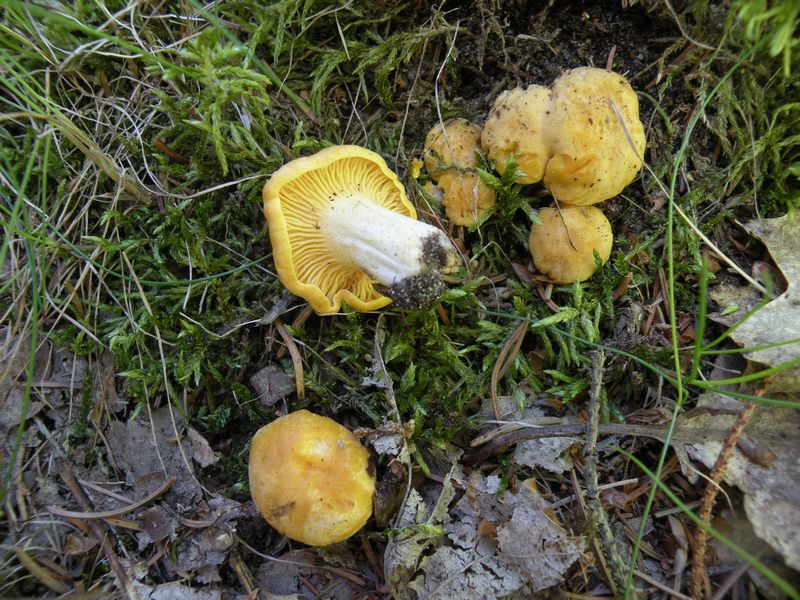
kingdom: Fungi
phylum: Basidiomycota
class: Agaricomycetes
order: Cantharellales
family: Hydnaceae
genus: Cantharellus
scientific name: Cantharellus cibarius
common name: almindelig kantarel
